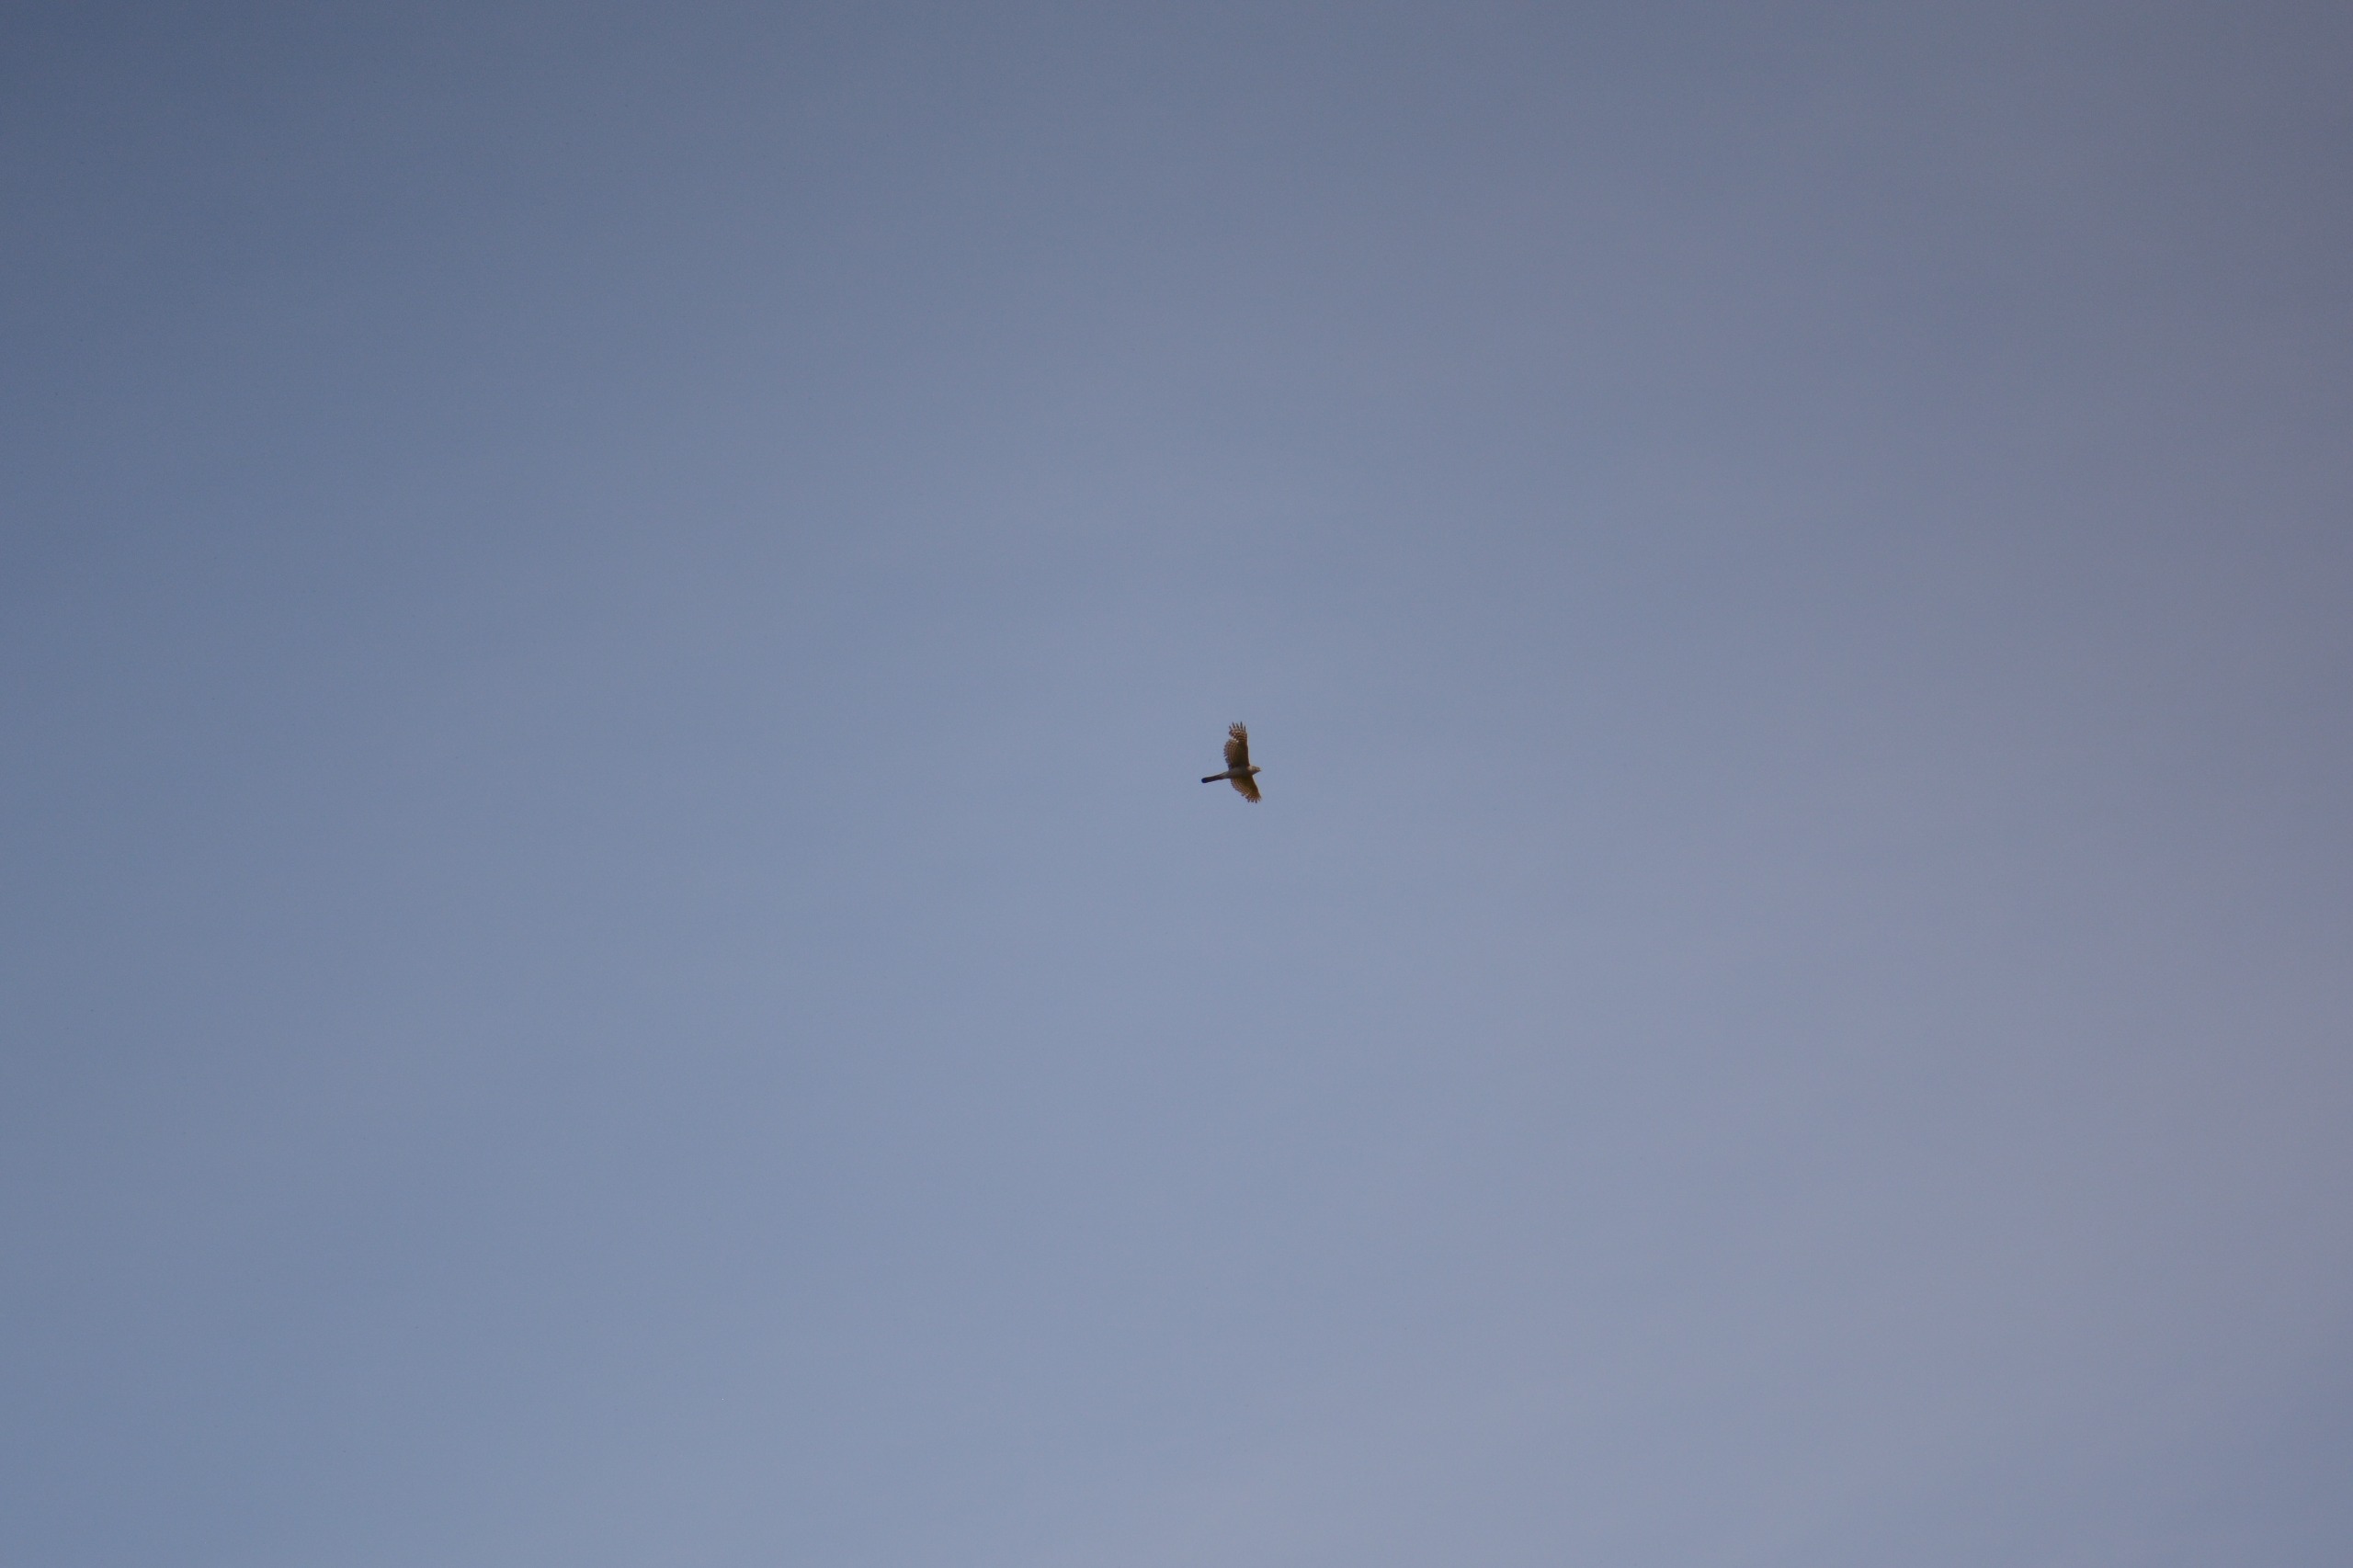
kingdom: Animalia
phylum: Chordata
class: Aves
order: Accipitriformes
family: Accipitridae
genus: Accipiter
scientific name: Accipiter nisus
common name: Spurvehøg
